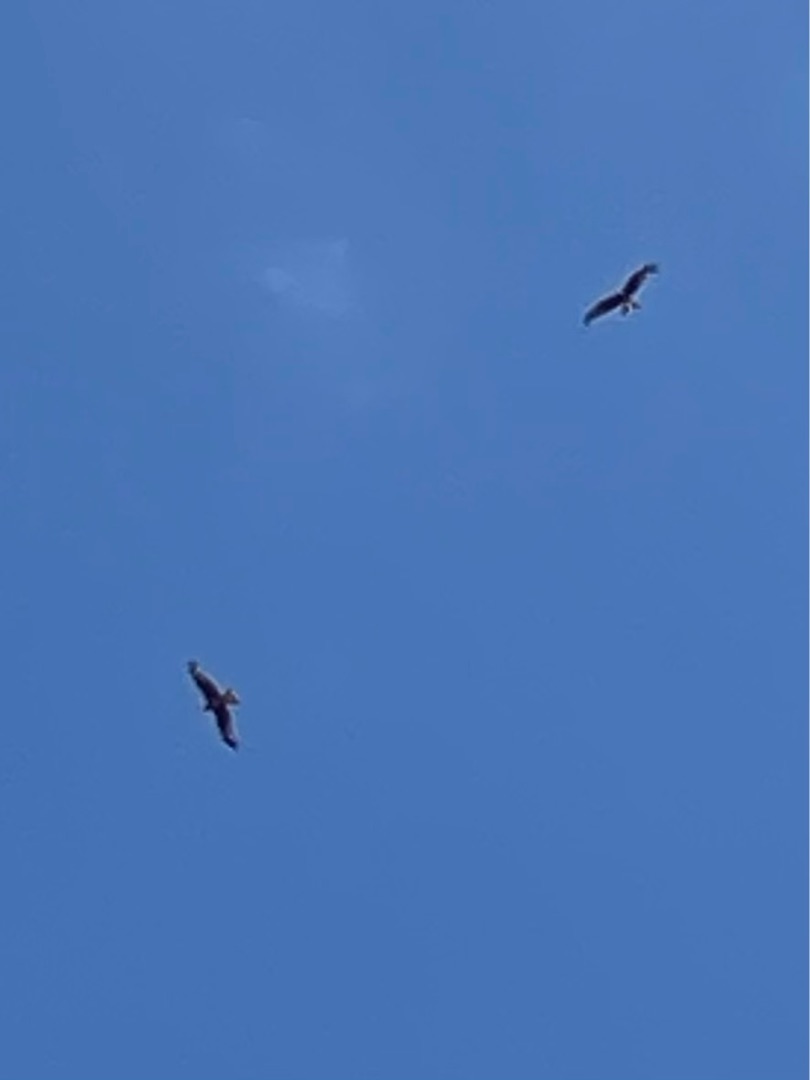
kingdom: Animalia
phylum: Chordata
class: Aves
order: Accipitriformes
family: Accipitridae
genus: Milvus
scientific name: Milvus milvus
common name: Rød glente
